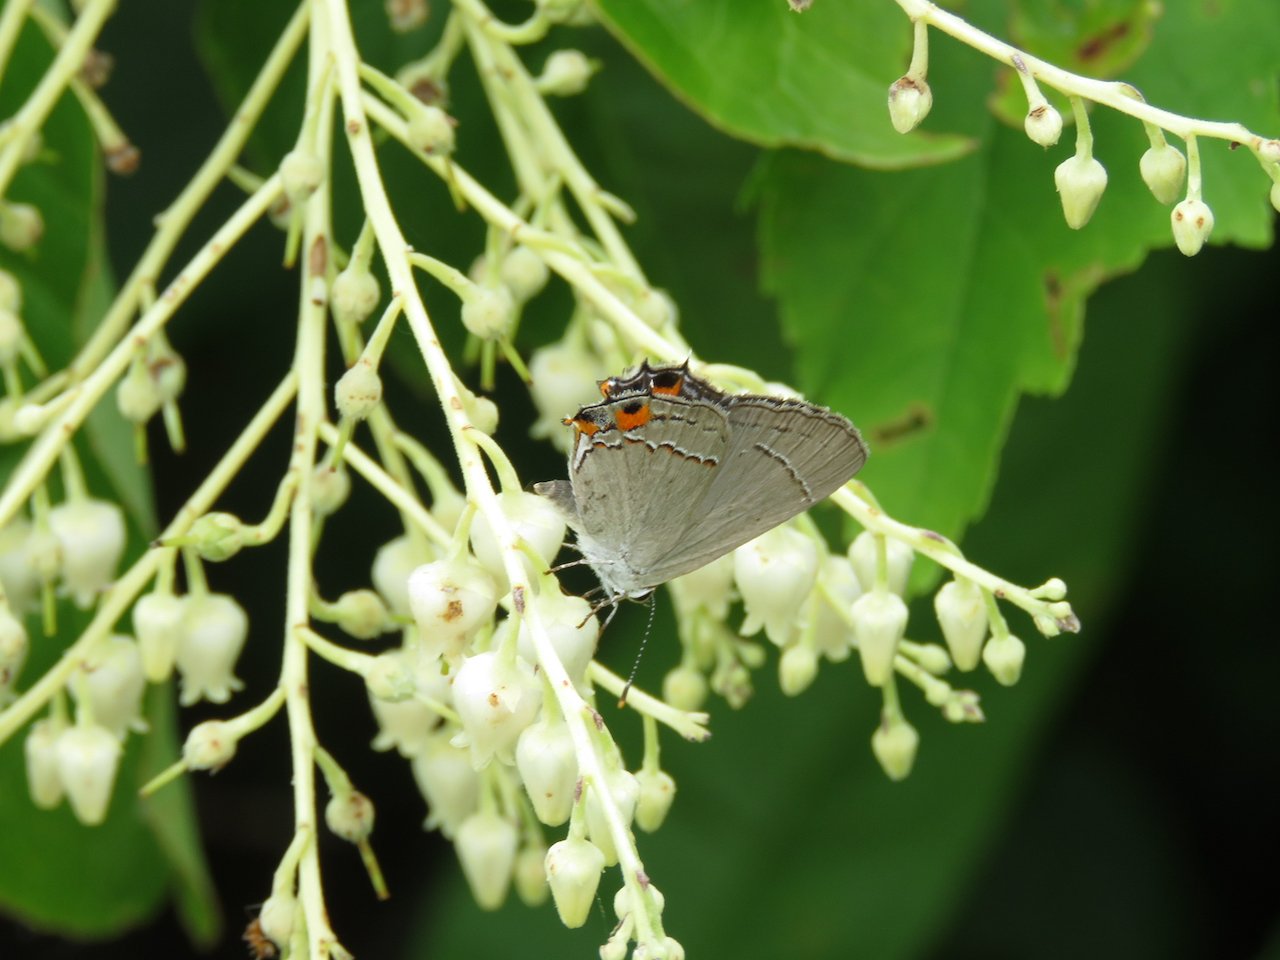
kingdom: Animalia
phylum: Arthropoda
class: Insecta
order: Lepidoptera
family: Lycaenidae
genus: Strymon
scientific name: Strymon melinus
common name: Gray Hairstreak
